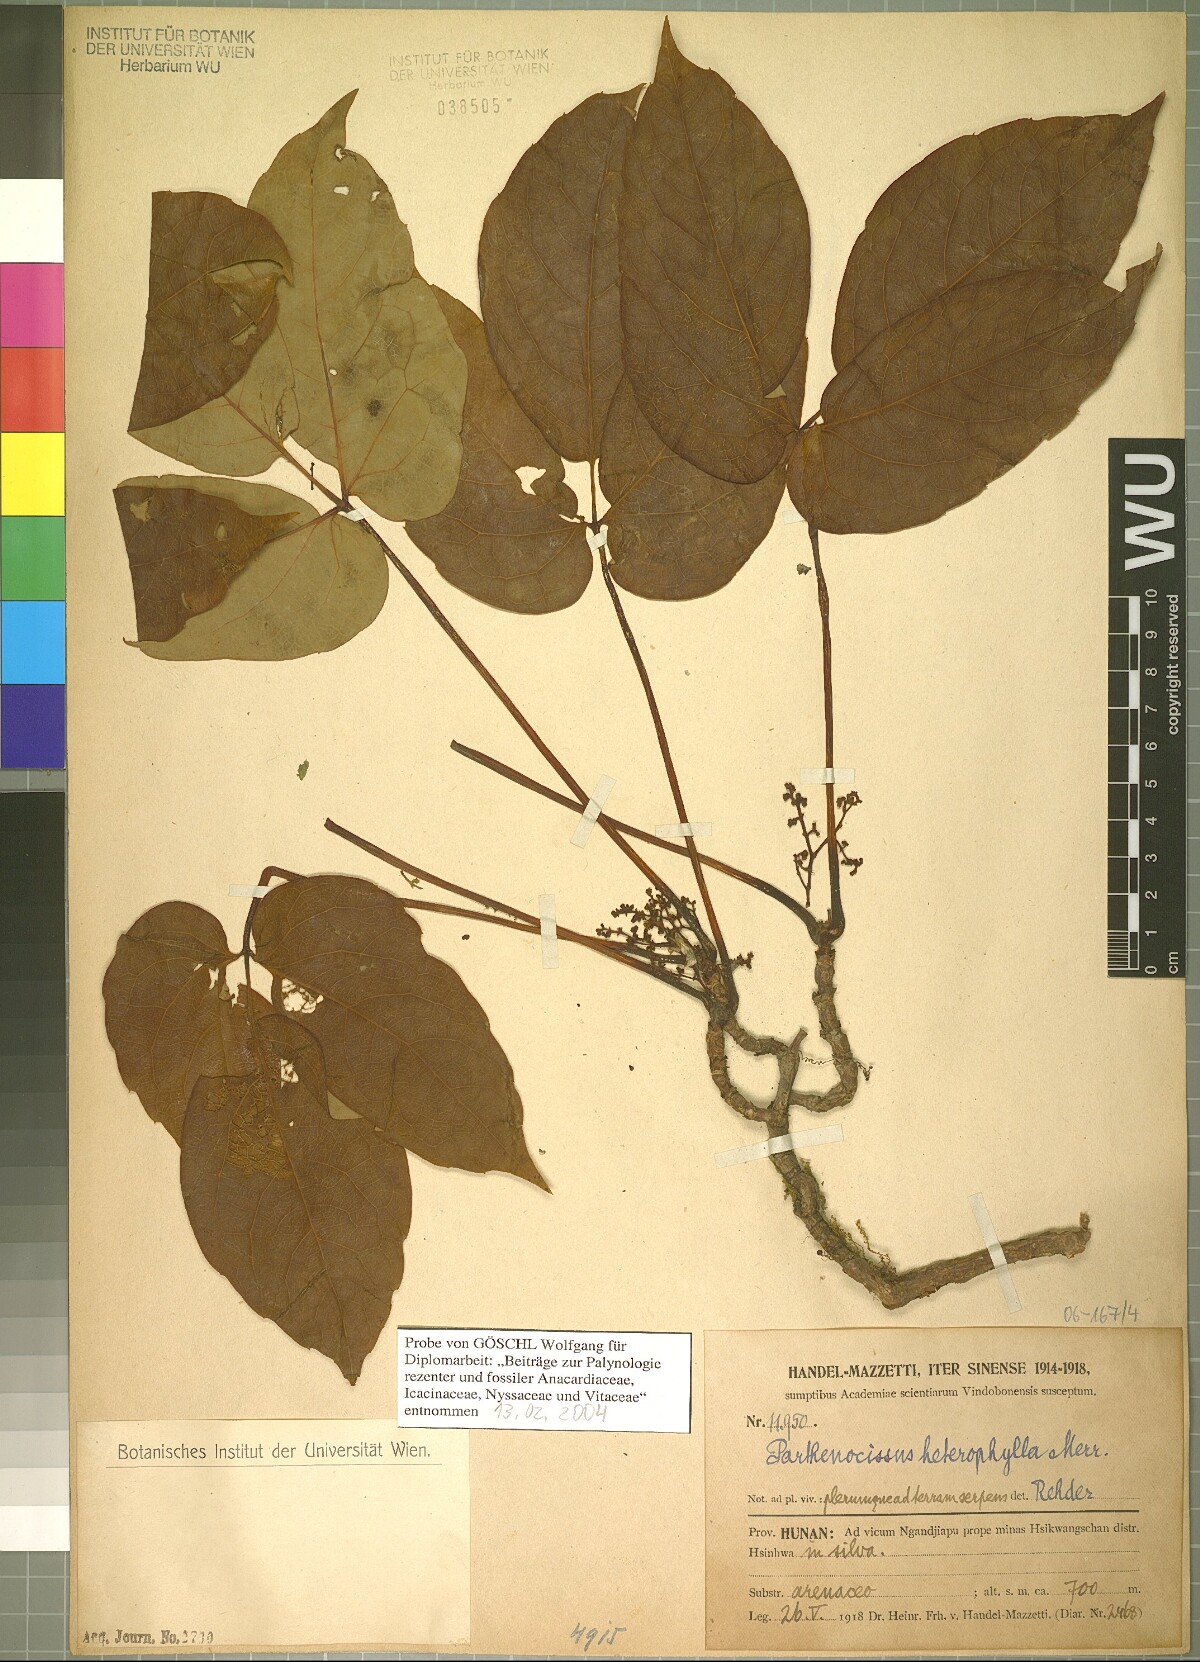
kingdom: Plantae
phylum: Tracheophyta
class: Magnoliopsida
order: Vitales
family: Vitaceae
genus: Parthenocissus
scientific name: Parthenocissus semicordata
